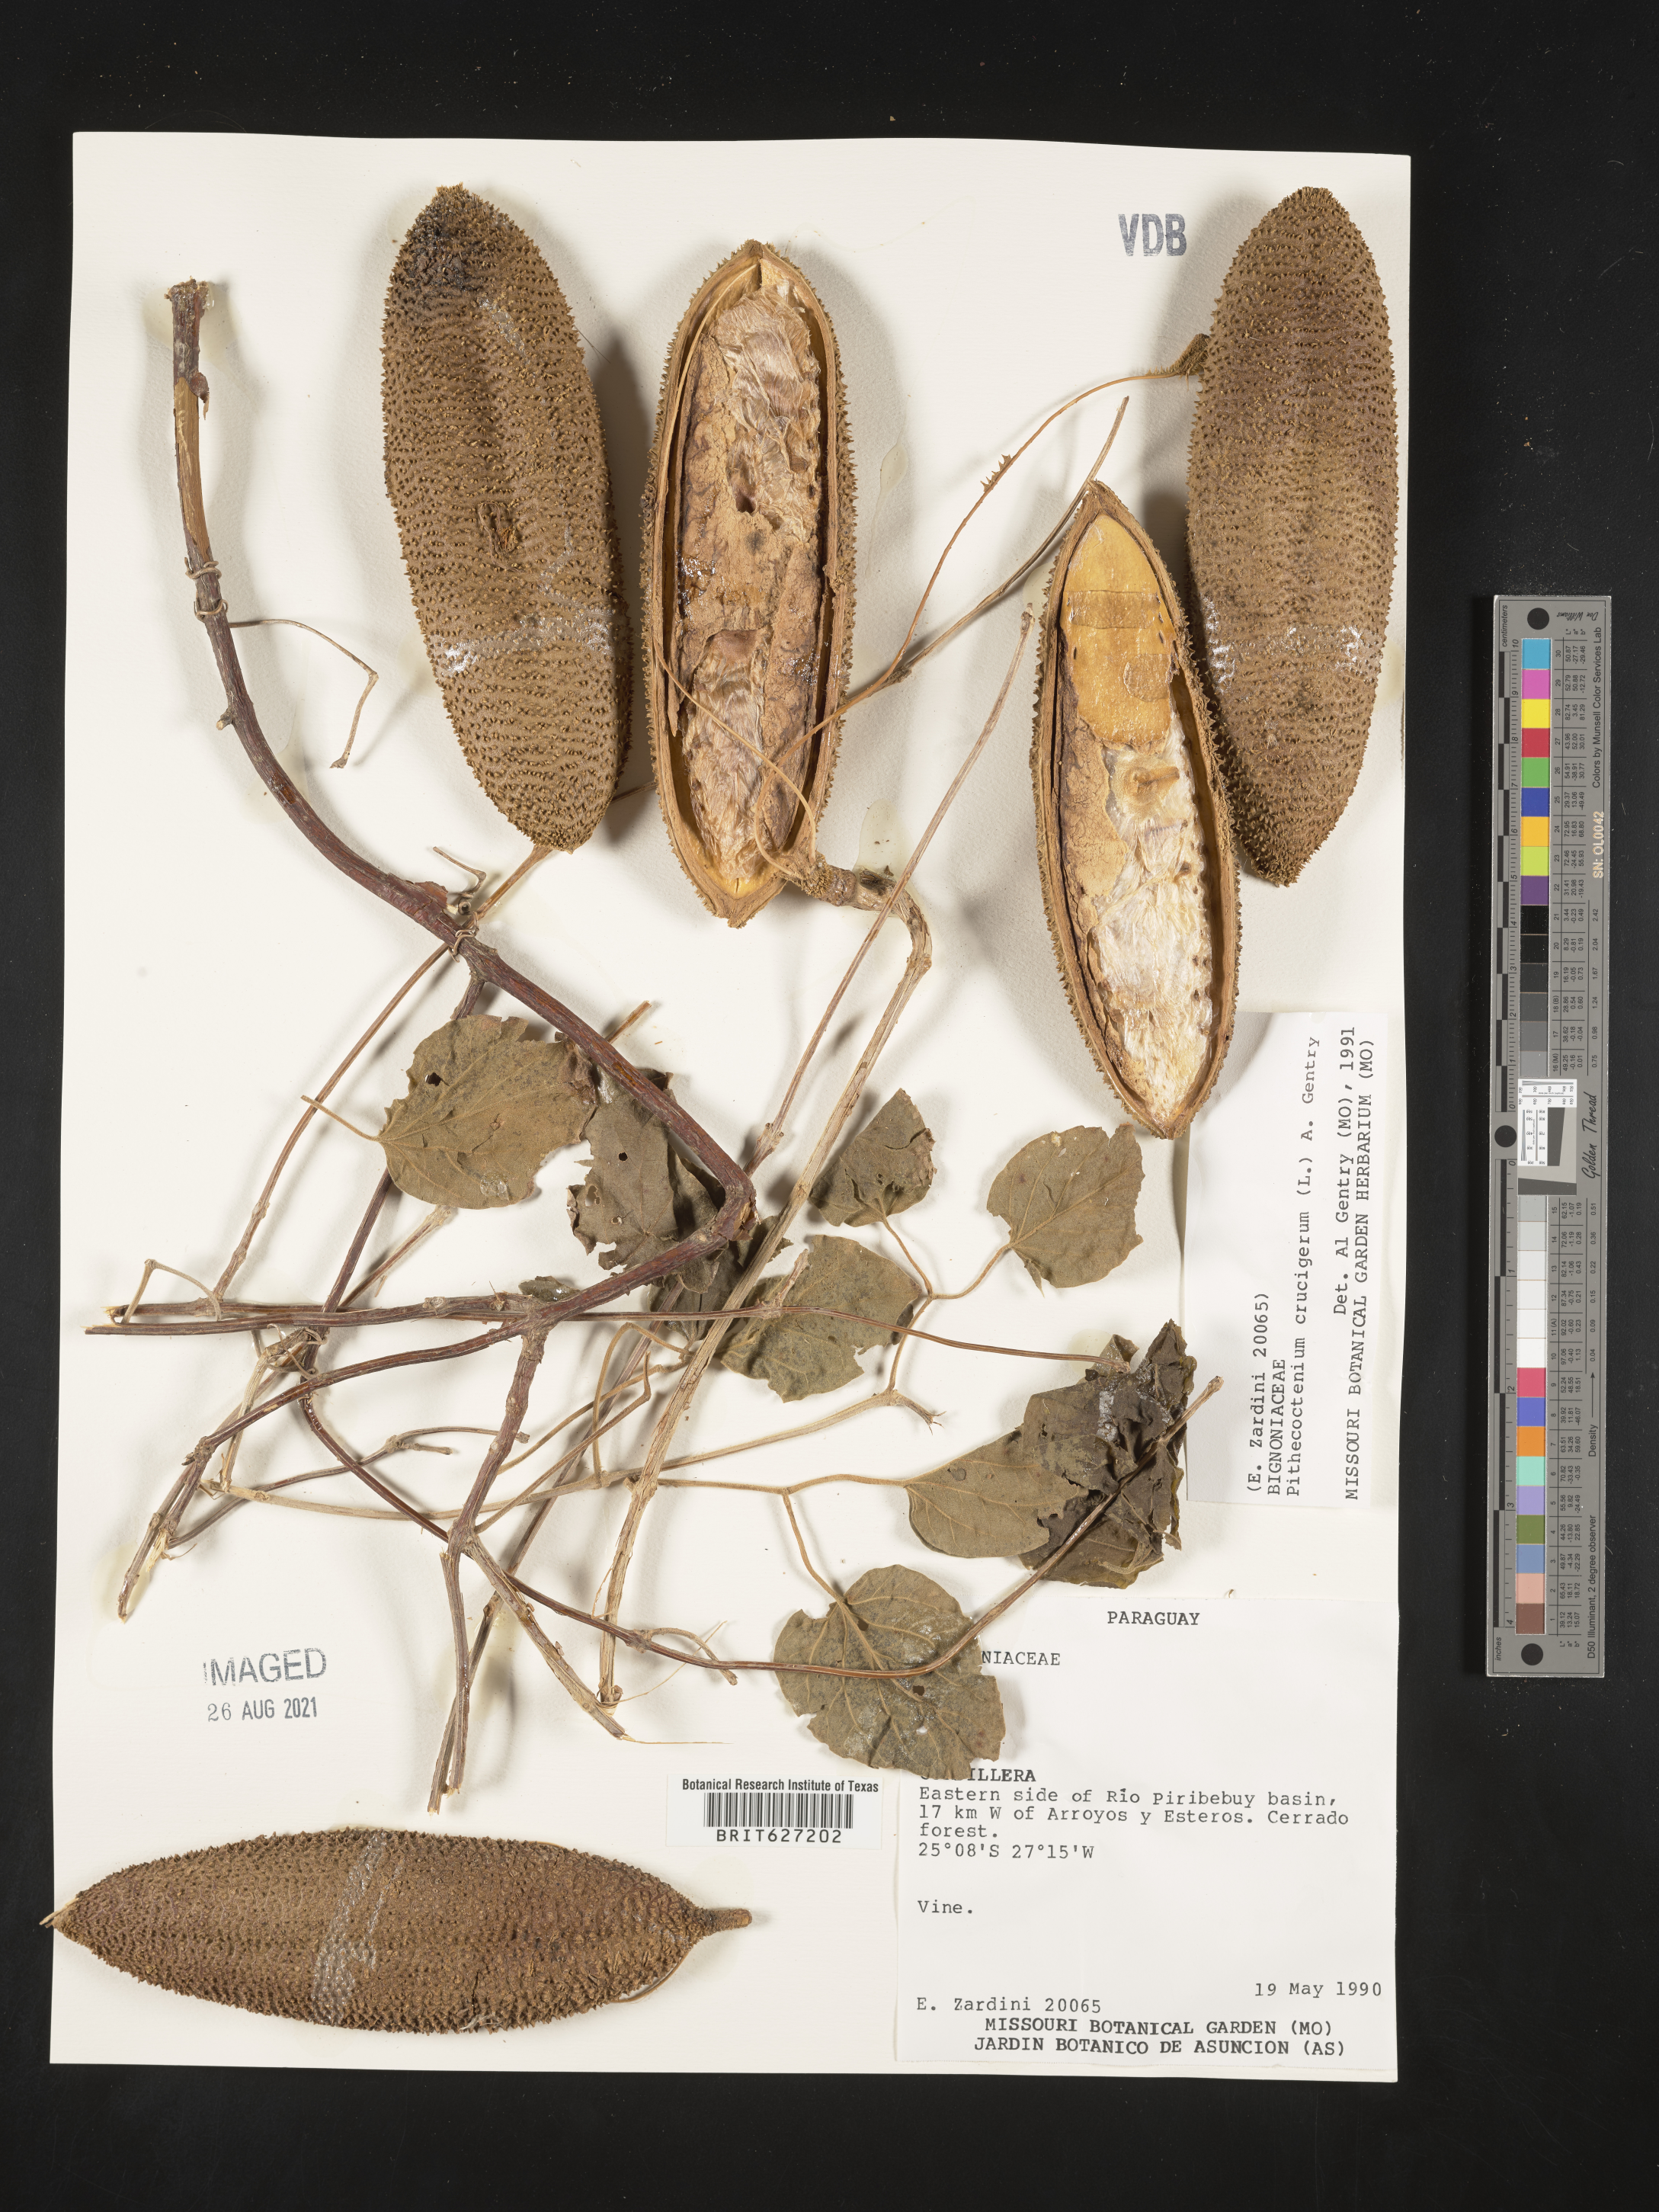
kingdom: Plantae
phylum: Tracheophyta
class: Magnoliopsida
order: Lamiales
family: Bignoniaceae
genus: Amphilophium
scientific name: Amphilophium crucigerum
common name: Monkey comb
